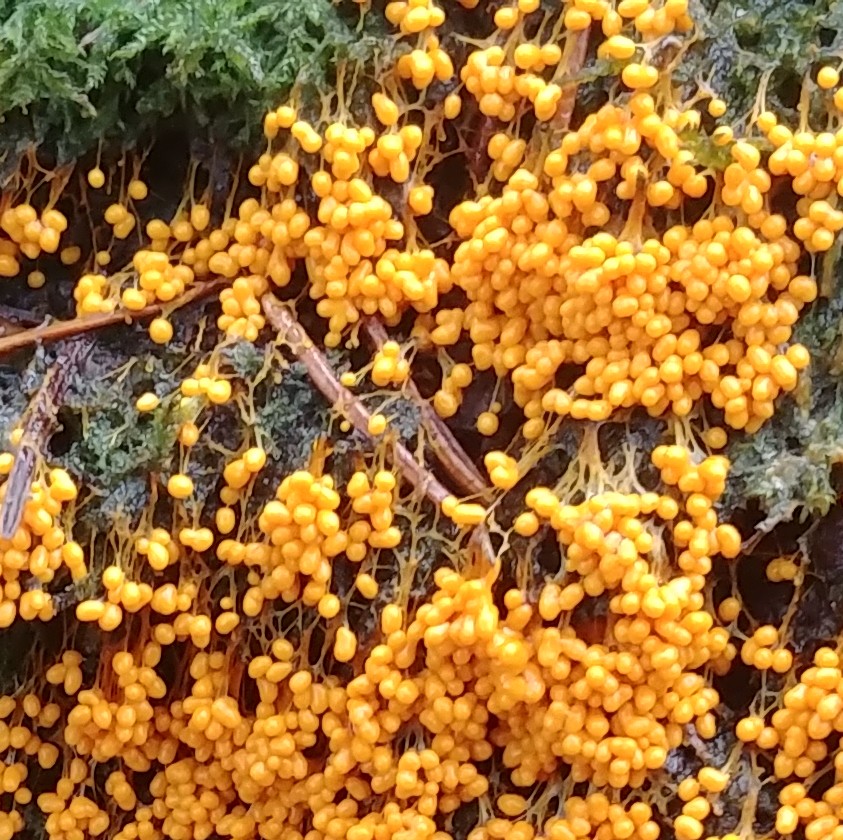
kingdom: Protozoa
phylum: Mycetozoa
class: Myxomycetes
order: Physarales
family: Physaraceae
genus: Badhamia
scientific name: Badhamia utricularis
